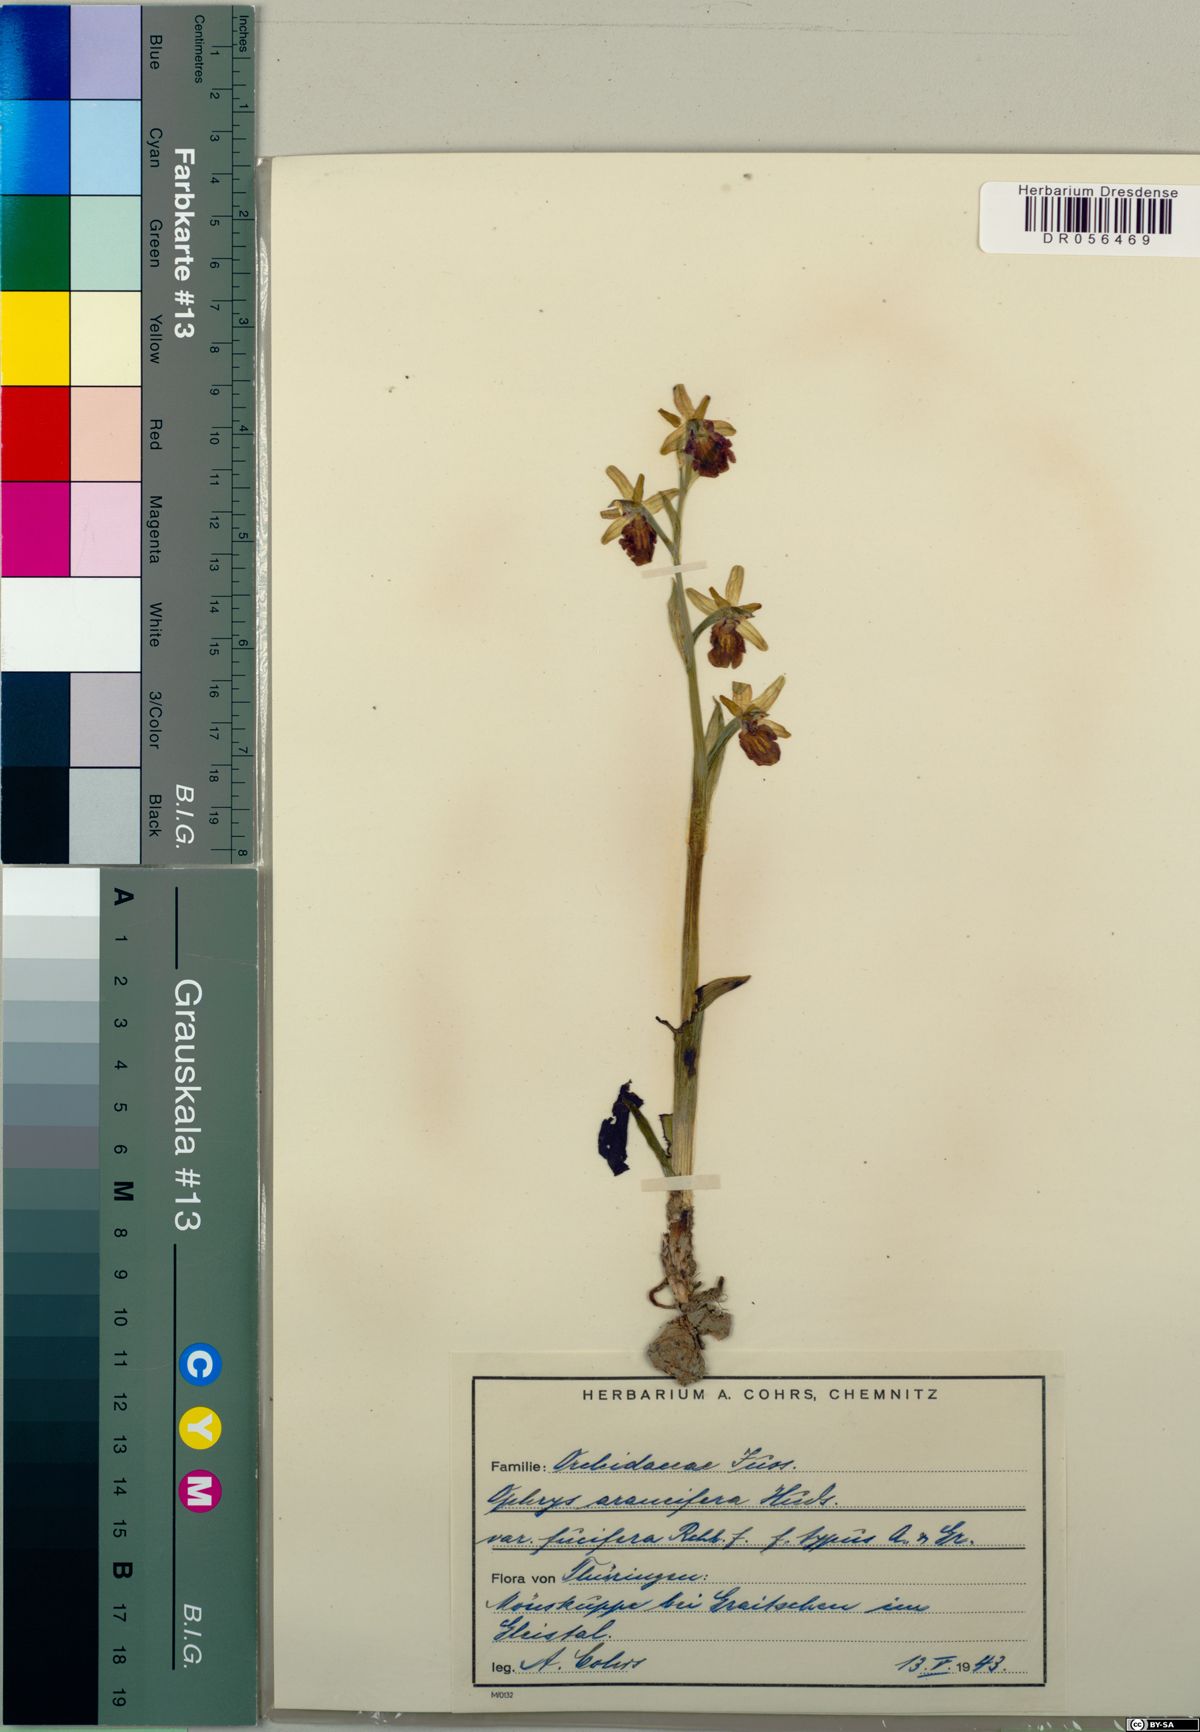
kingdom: Plantae
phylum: Tracheophyta
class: Liliopsida
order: Asparagales
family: Orchidaceae
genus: Ophrys
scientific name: Ophrys sphegodes
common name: Early spider-orchid
